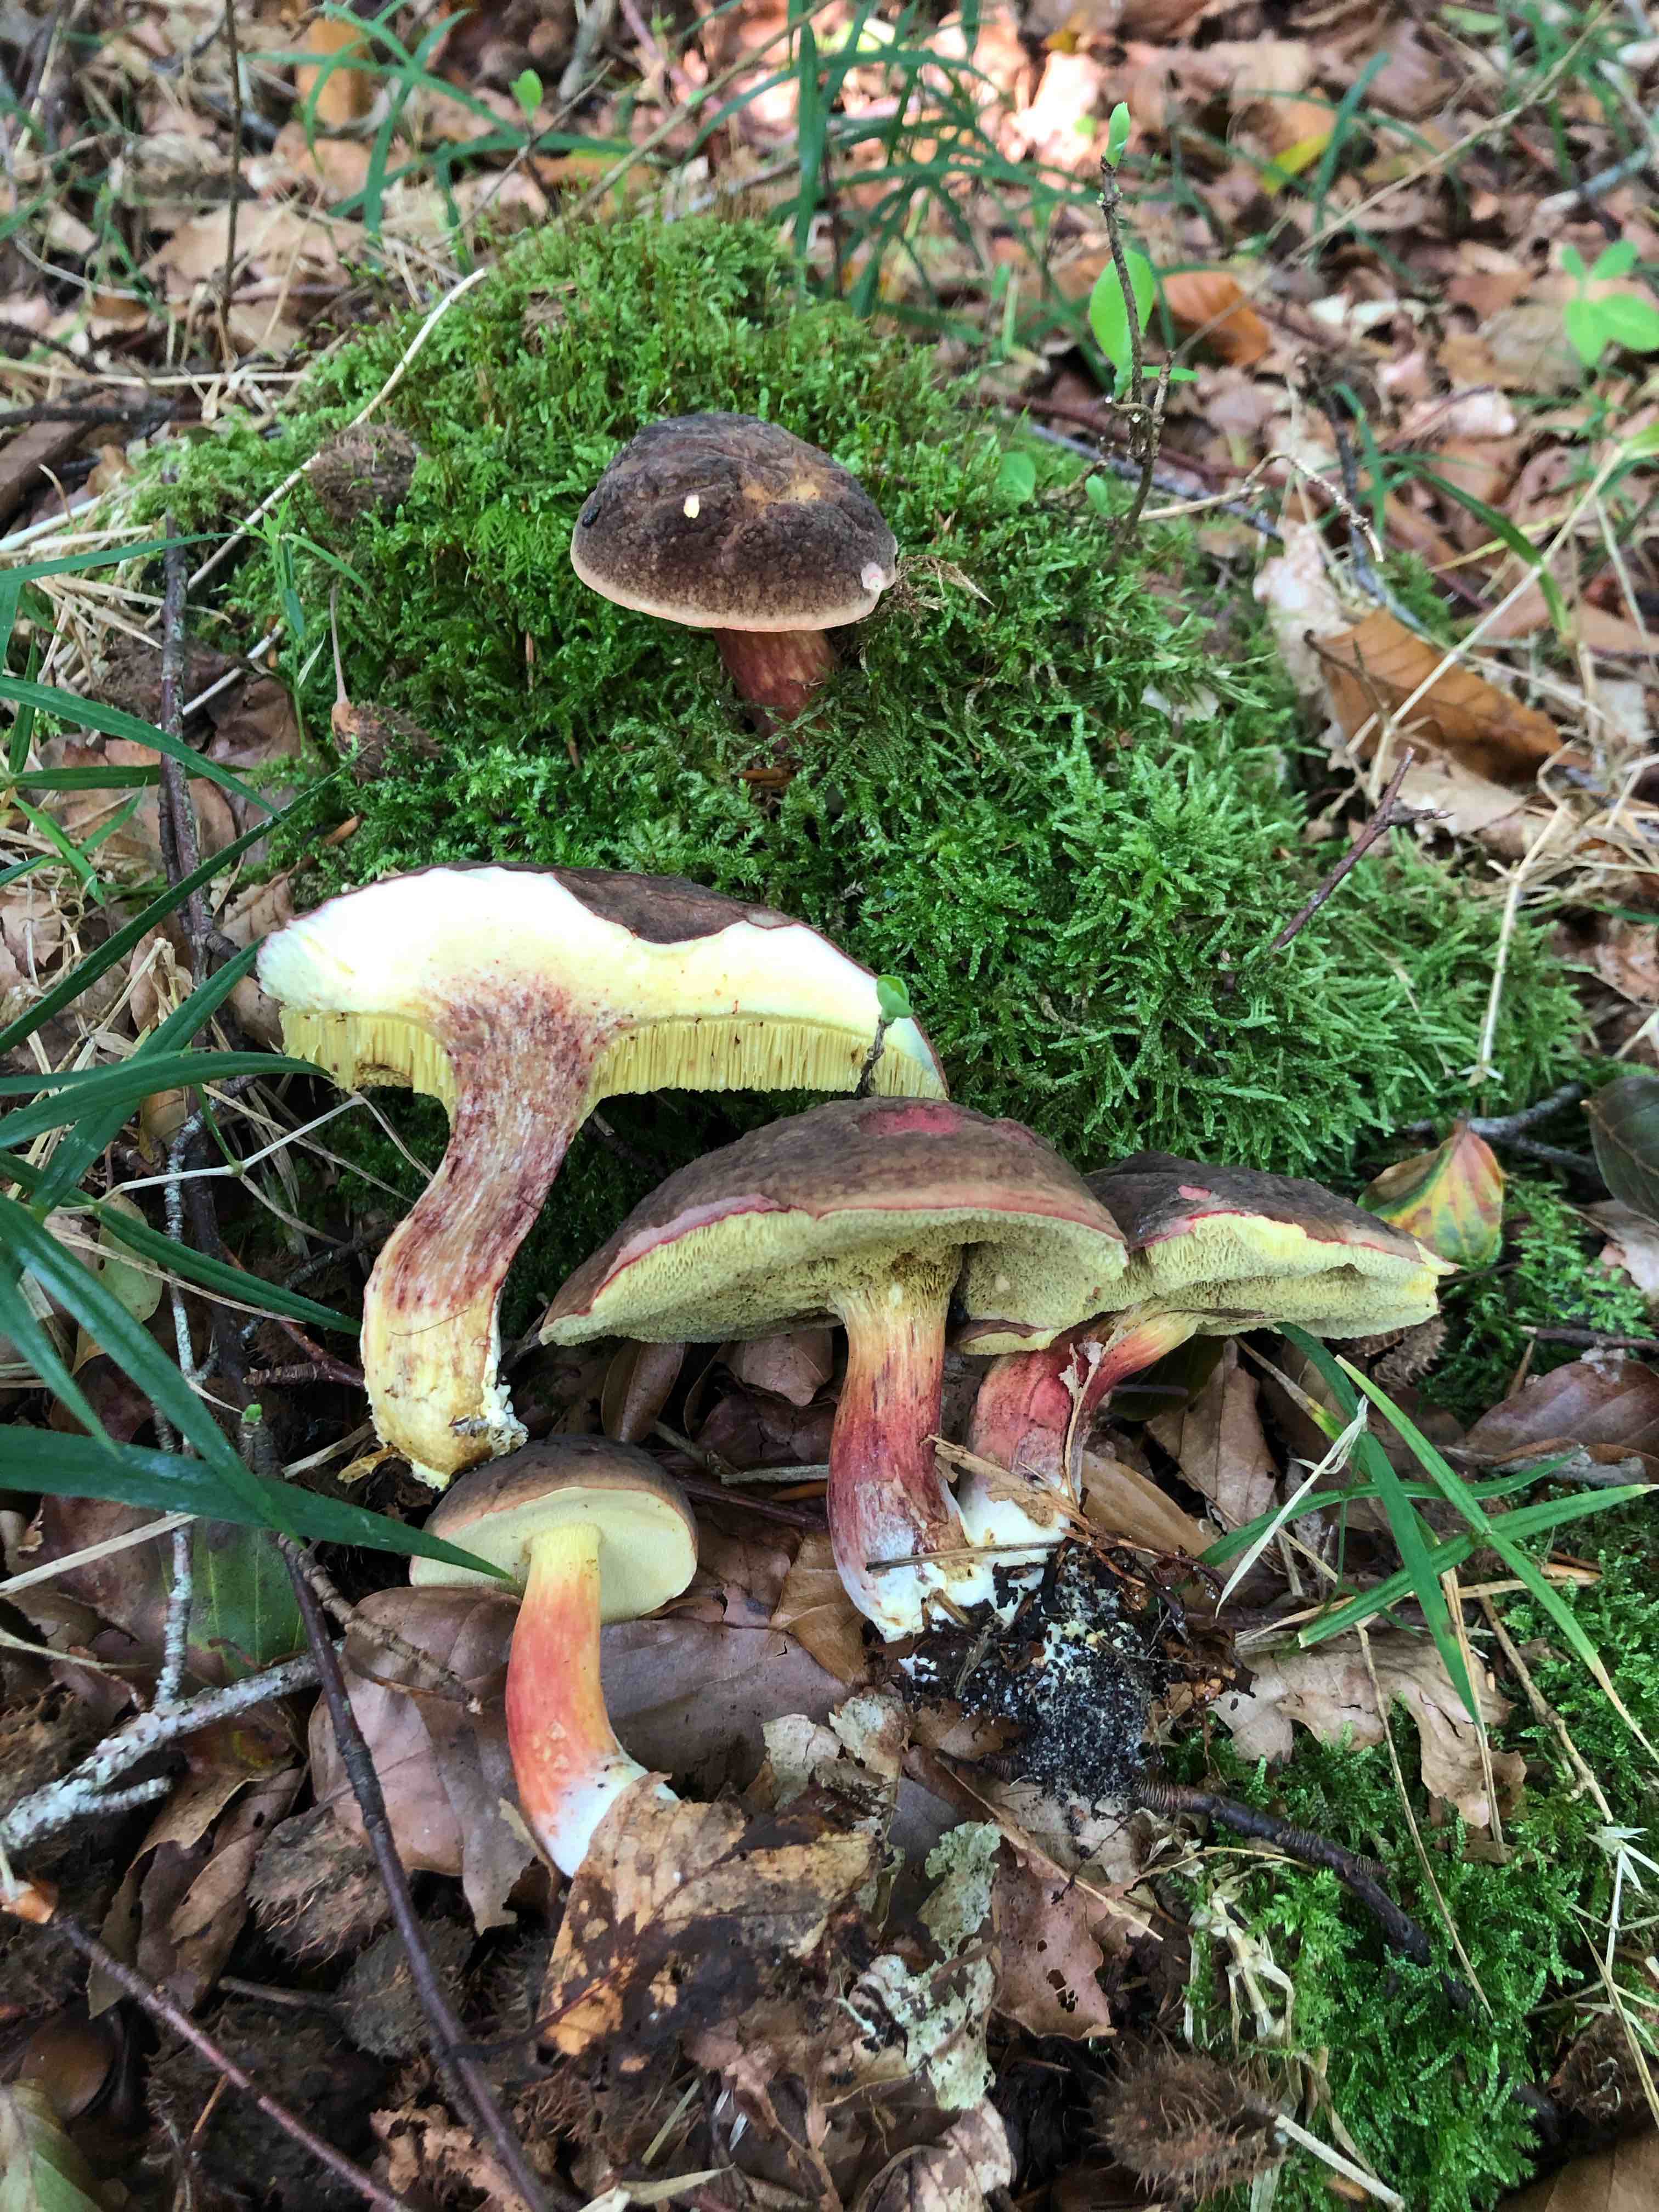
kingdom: Fungi
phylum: Basidiomycota
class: Agaricomycetes
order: Boletales
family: Boletaceae
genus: Xerocomellus
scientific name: Xerocomellus pruinatus
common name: dugget rørhat
